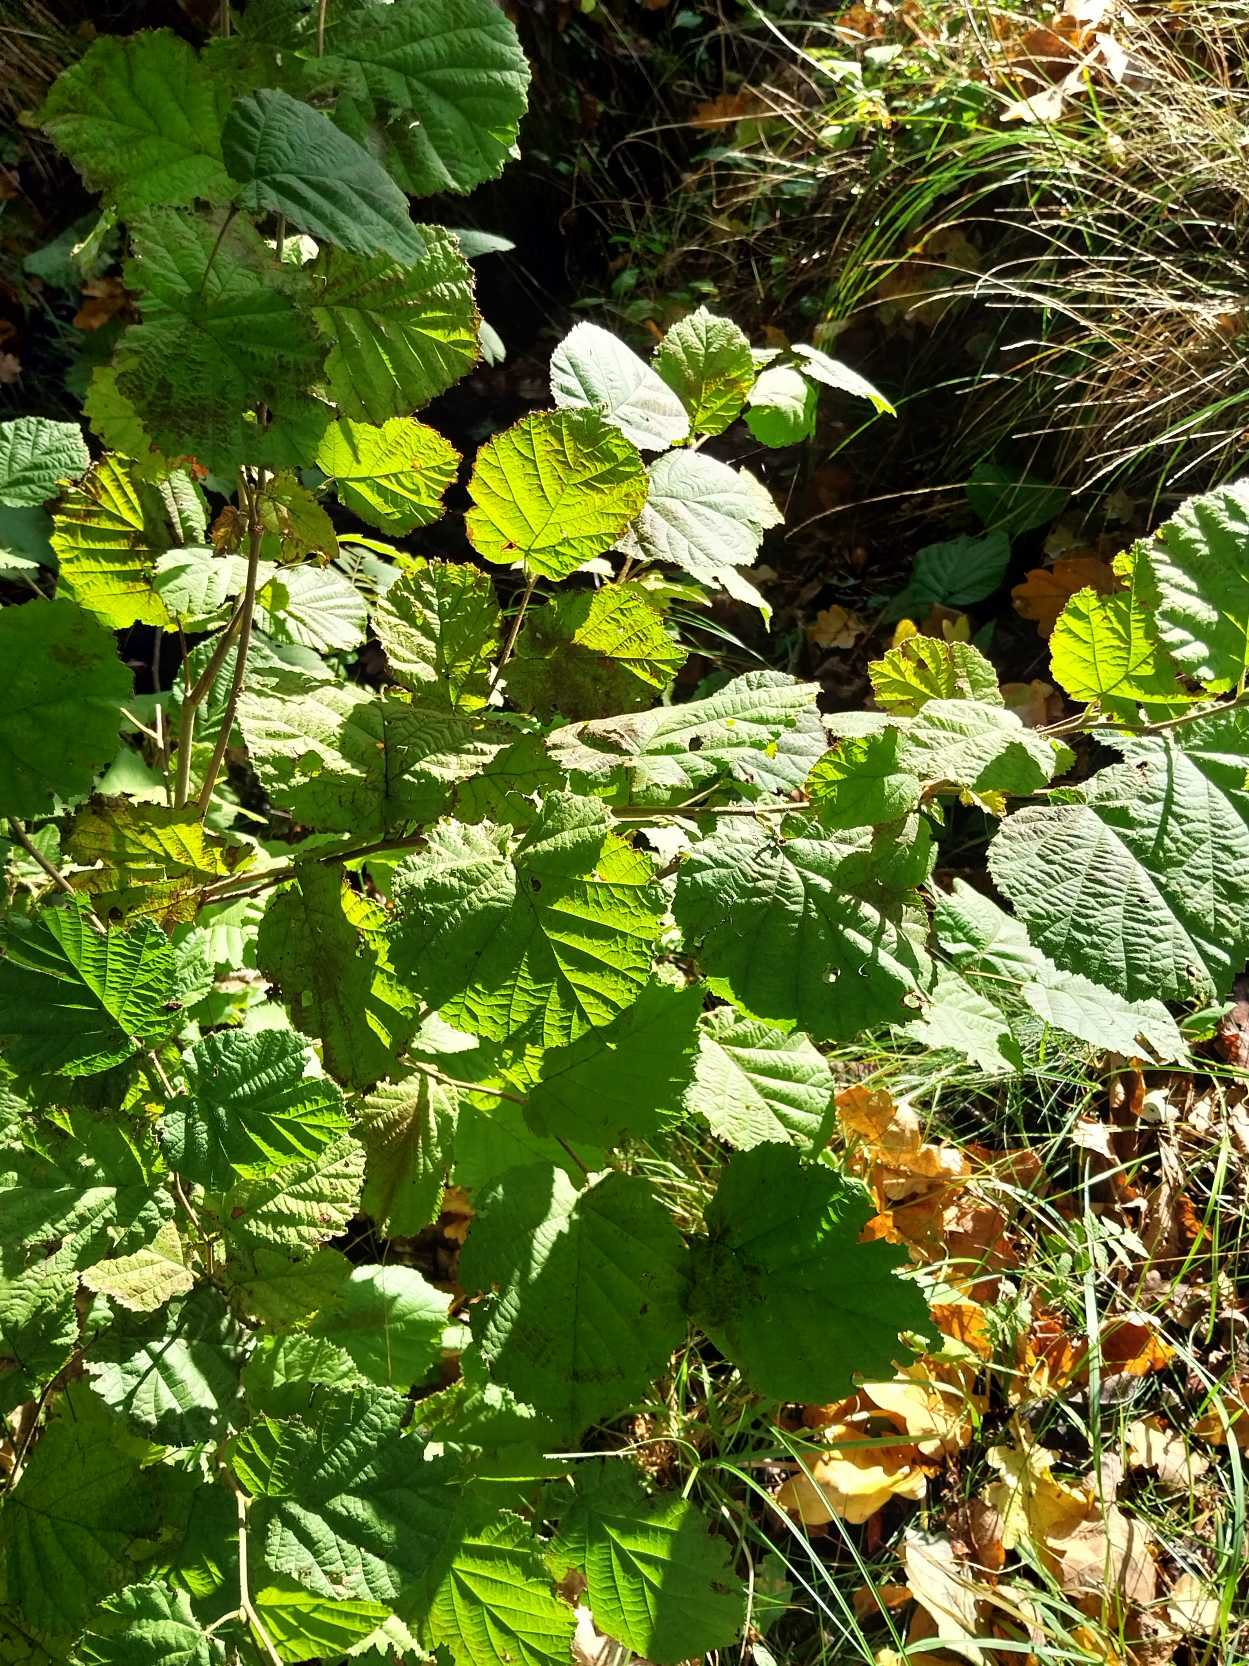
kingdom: Plantae
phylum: Tracheophyta
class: Magnoliopsida
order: Fagales
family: Betulaceae
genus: Corylus
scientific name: Corylus avellana
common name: Hassel
